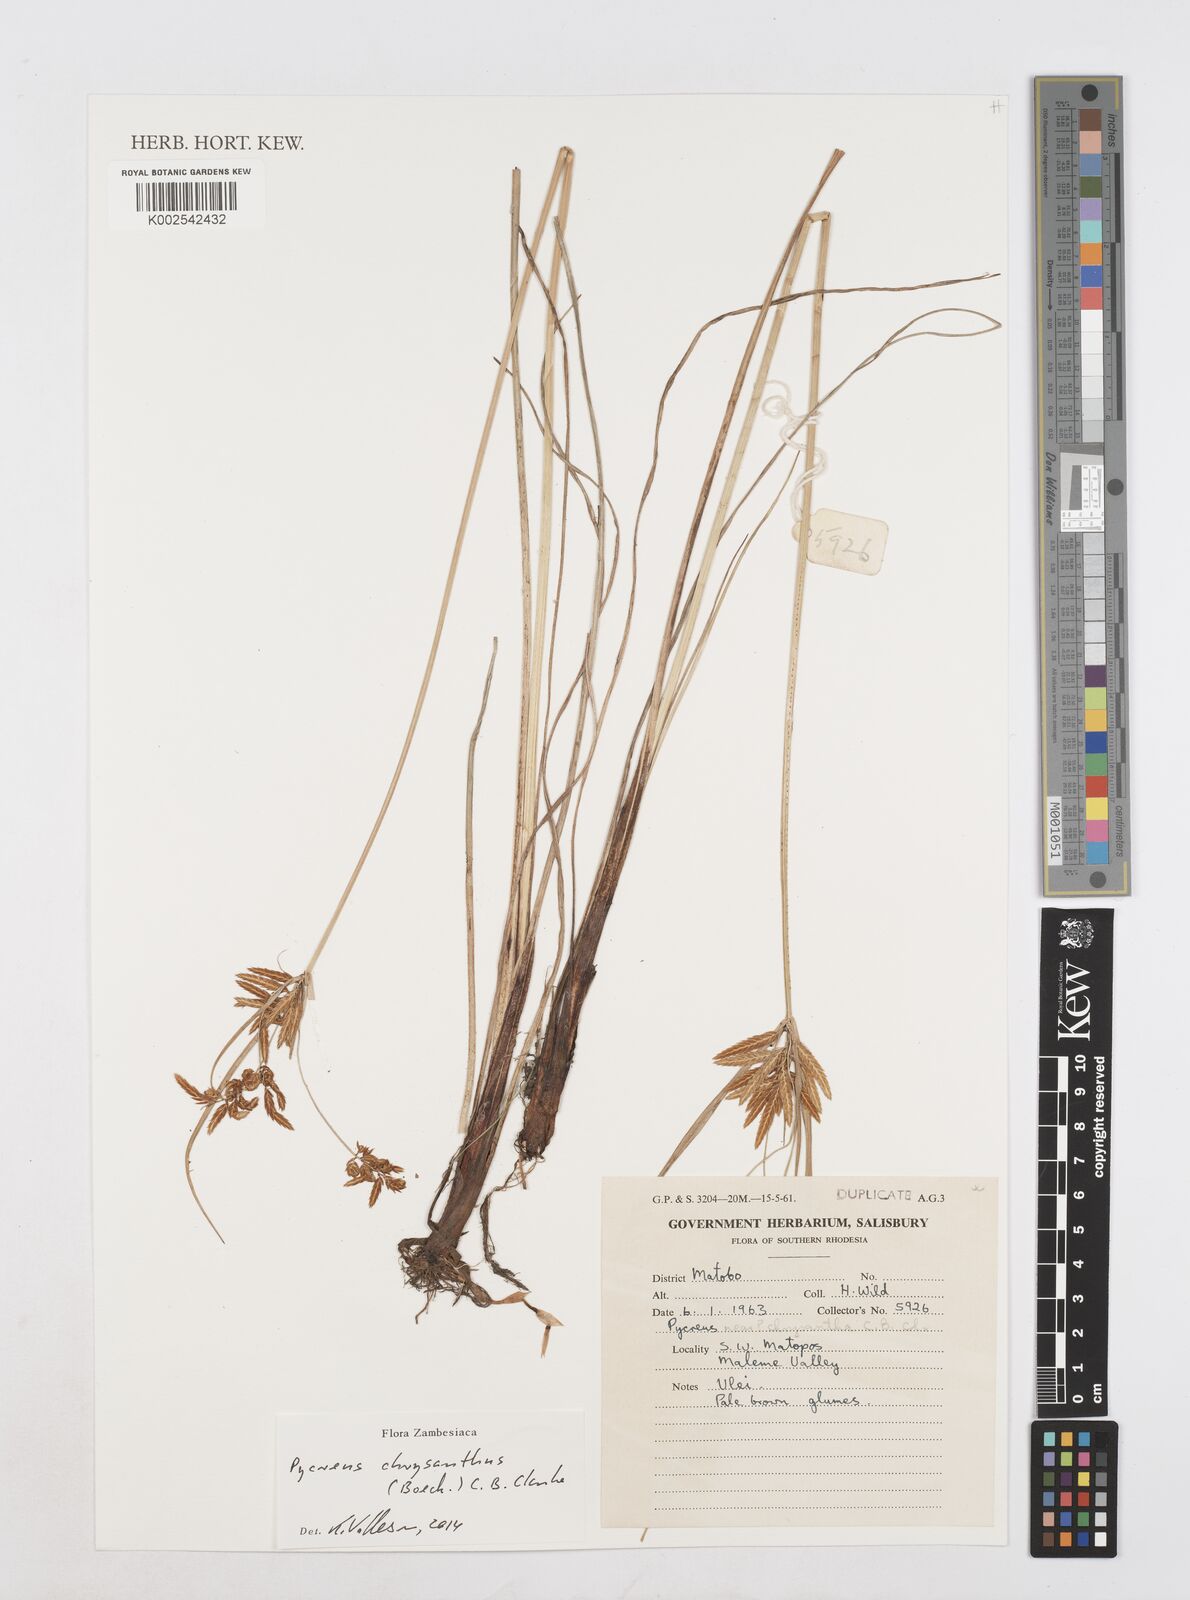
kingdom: Plantae
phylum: Tracheophyta
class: Liliopsida
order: Poales
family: Cyperaceae
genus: Cyperus
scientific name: Cyperus chrysanthus
